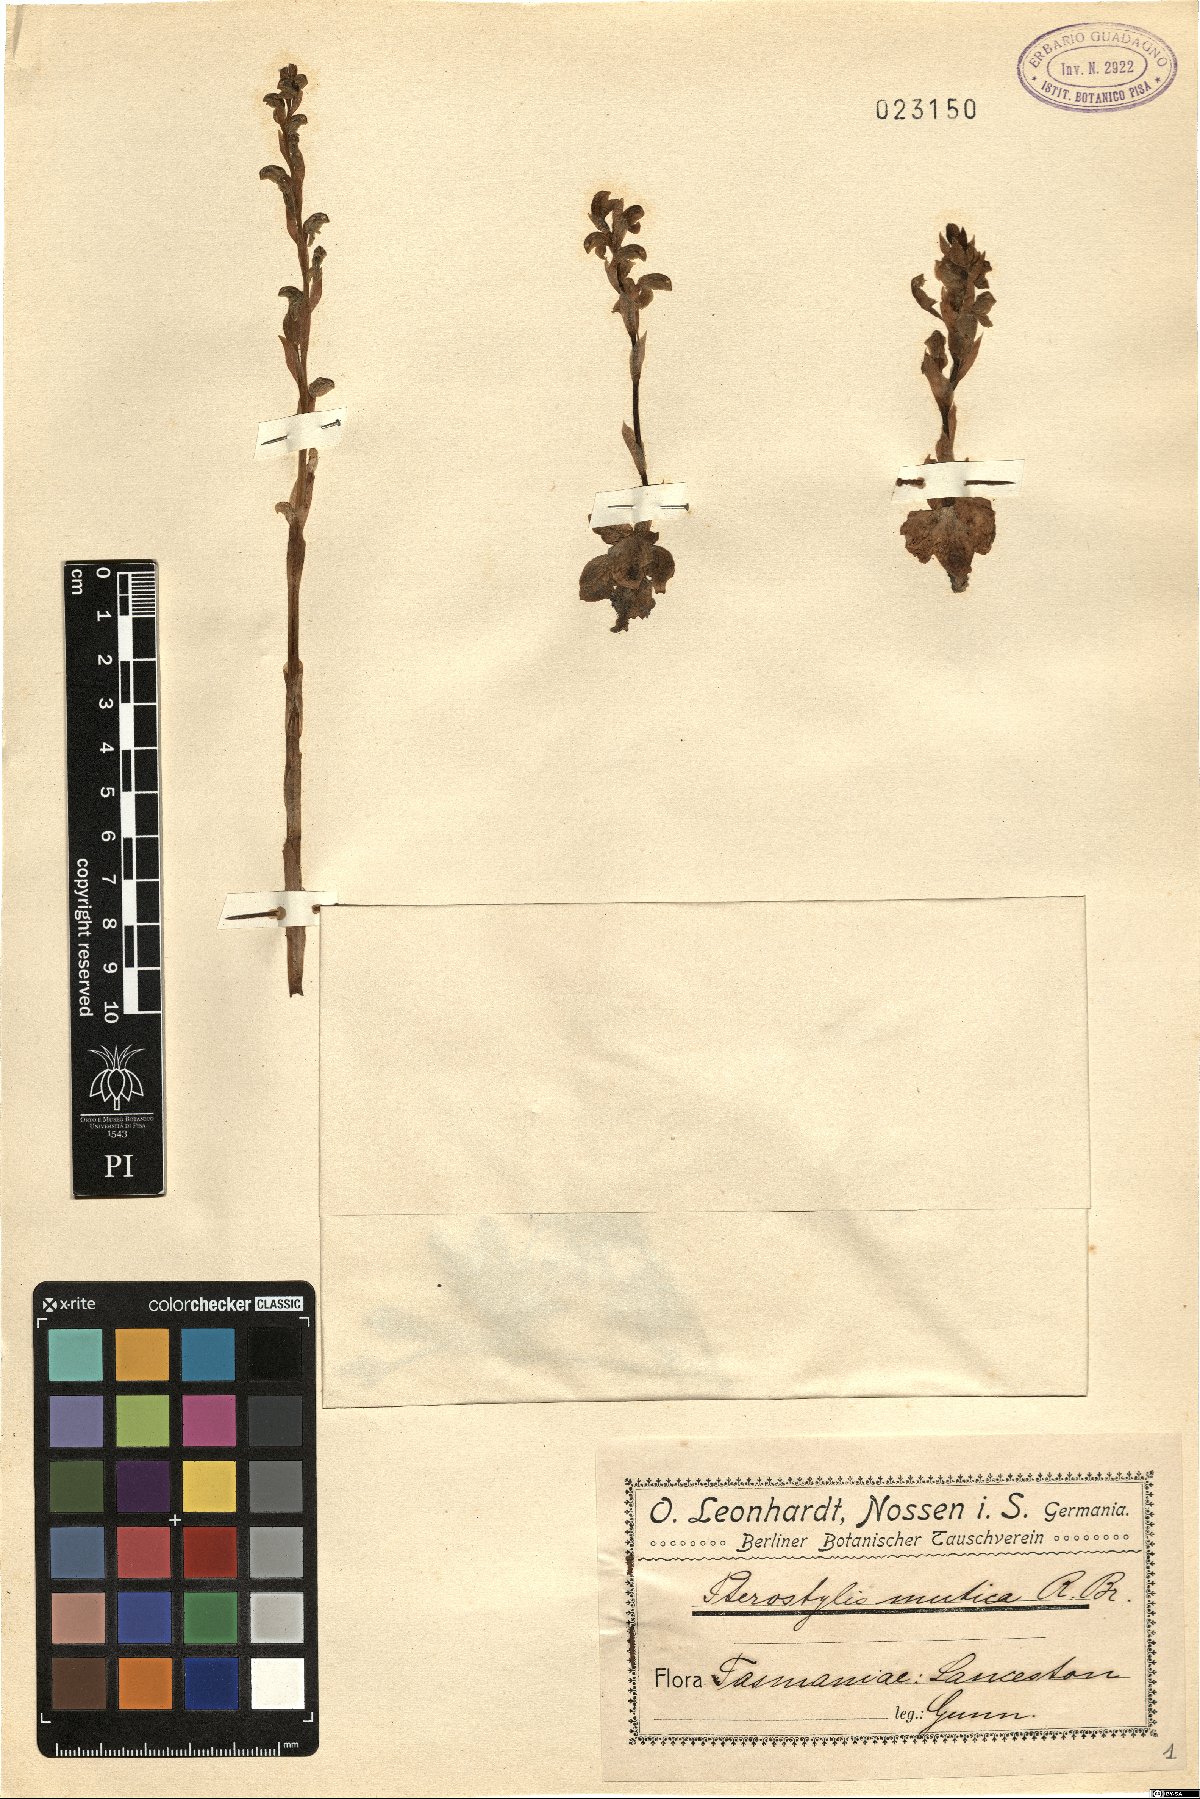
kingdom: Plantae
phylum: Tracheophyta
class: Liliopsida
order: Asparagales
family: Orchidaceae
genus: Pterostylis
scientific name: Pterostylis mutica
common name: Midget greenhood
